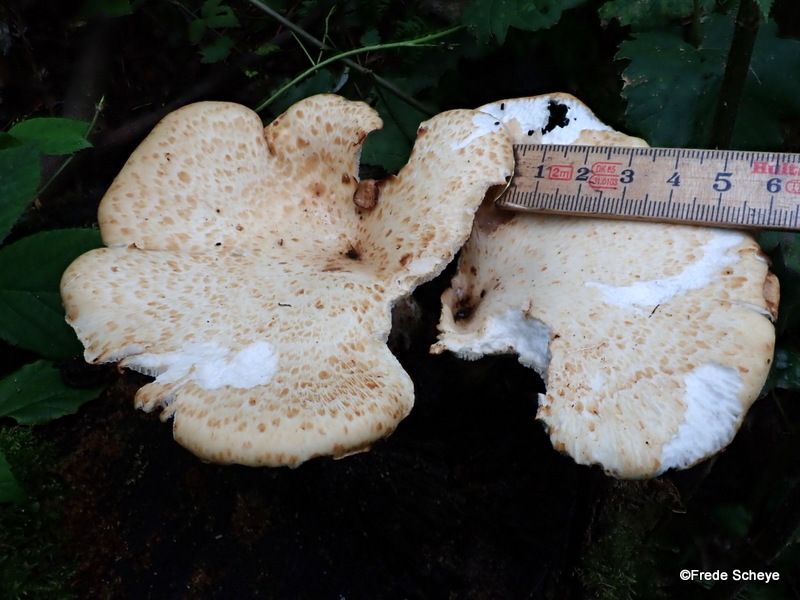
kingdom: Fungi
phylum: Basidiomycota
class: Agaricomycetes
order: Polyporales
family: Polyporaceae
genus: Cerioporus
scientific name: Cerioporus squamosus
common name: skællet stilkporesvamp
